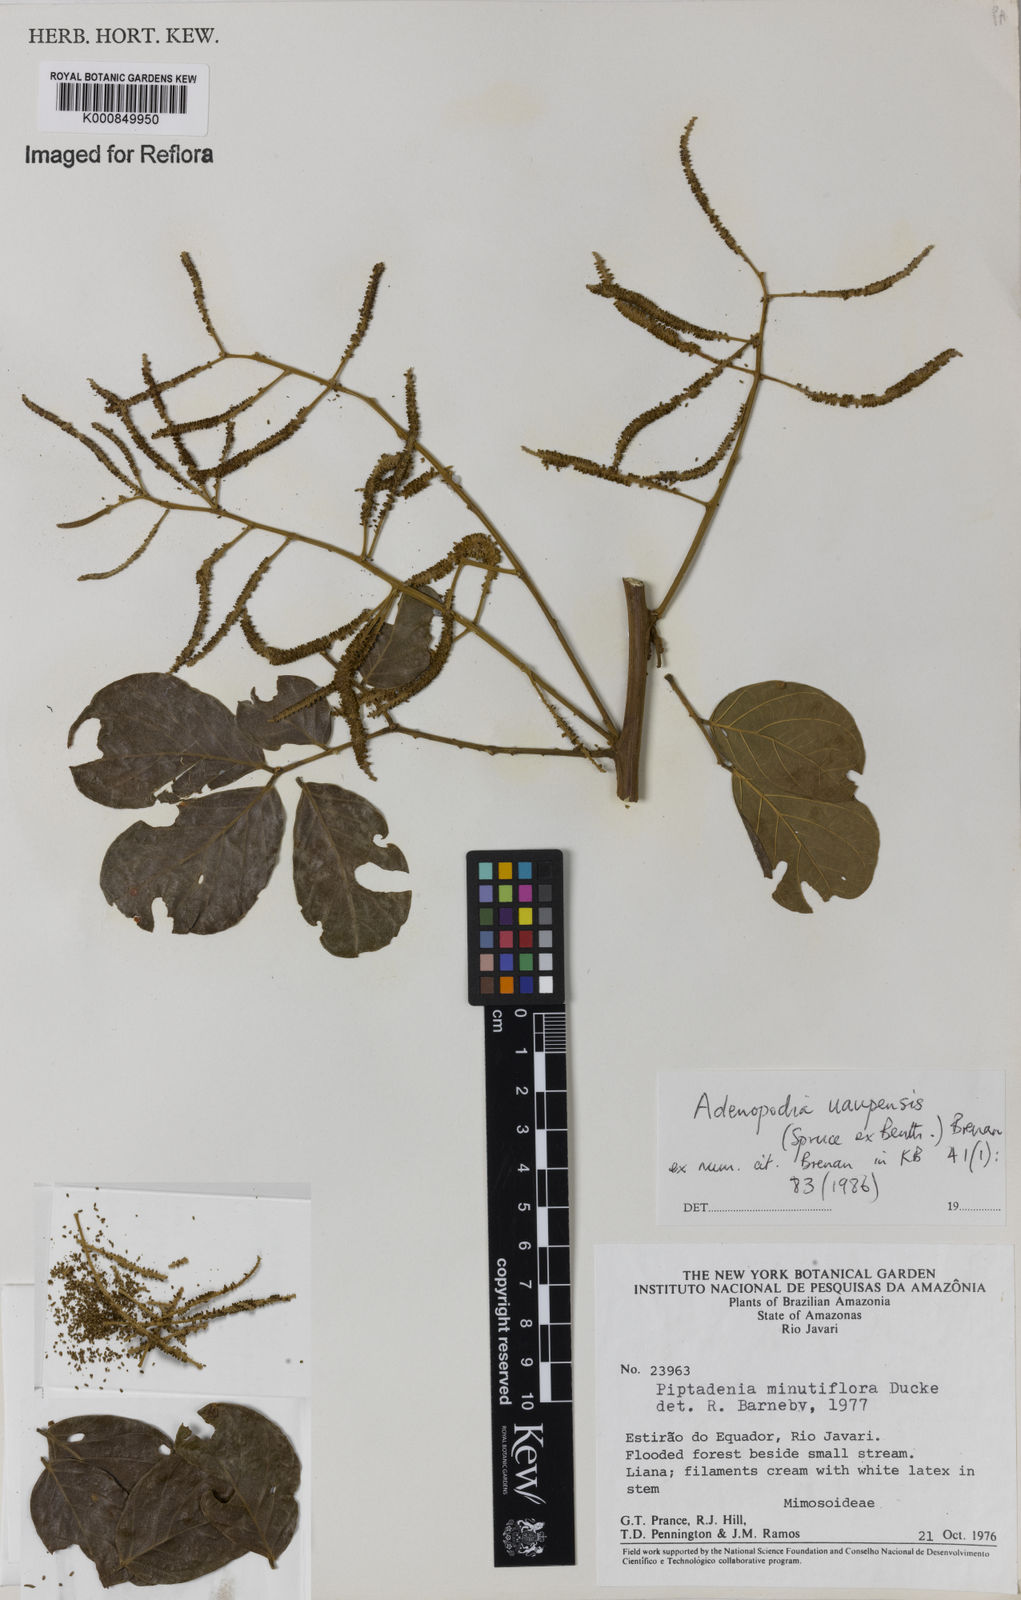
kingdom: Plantae
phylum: Tracheophyta
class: Magnoliopsida
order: Fabales
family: Fabaceae
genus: Piptadenia
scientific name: Piptadenia
